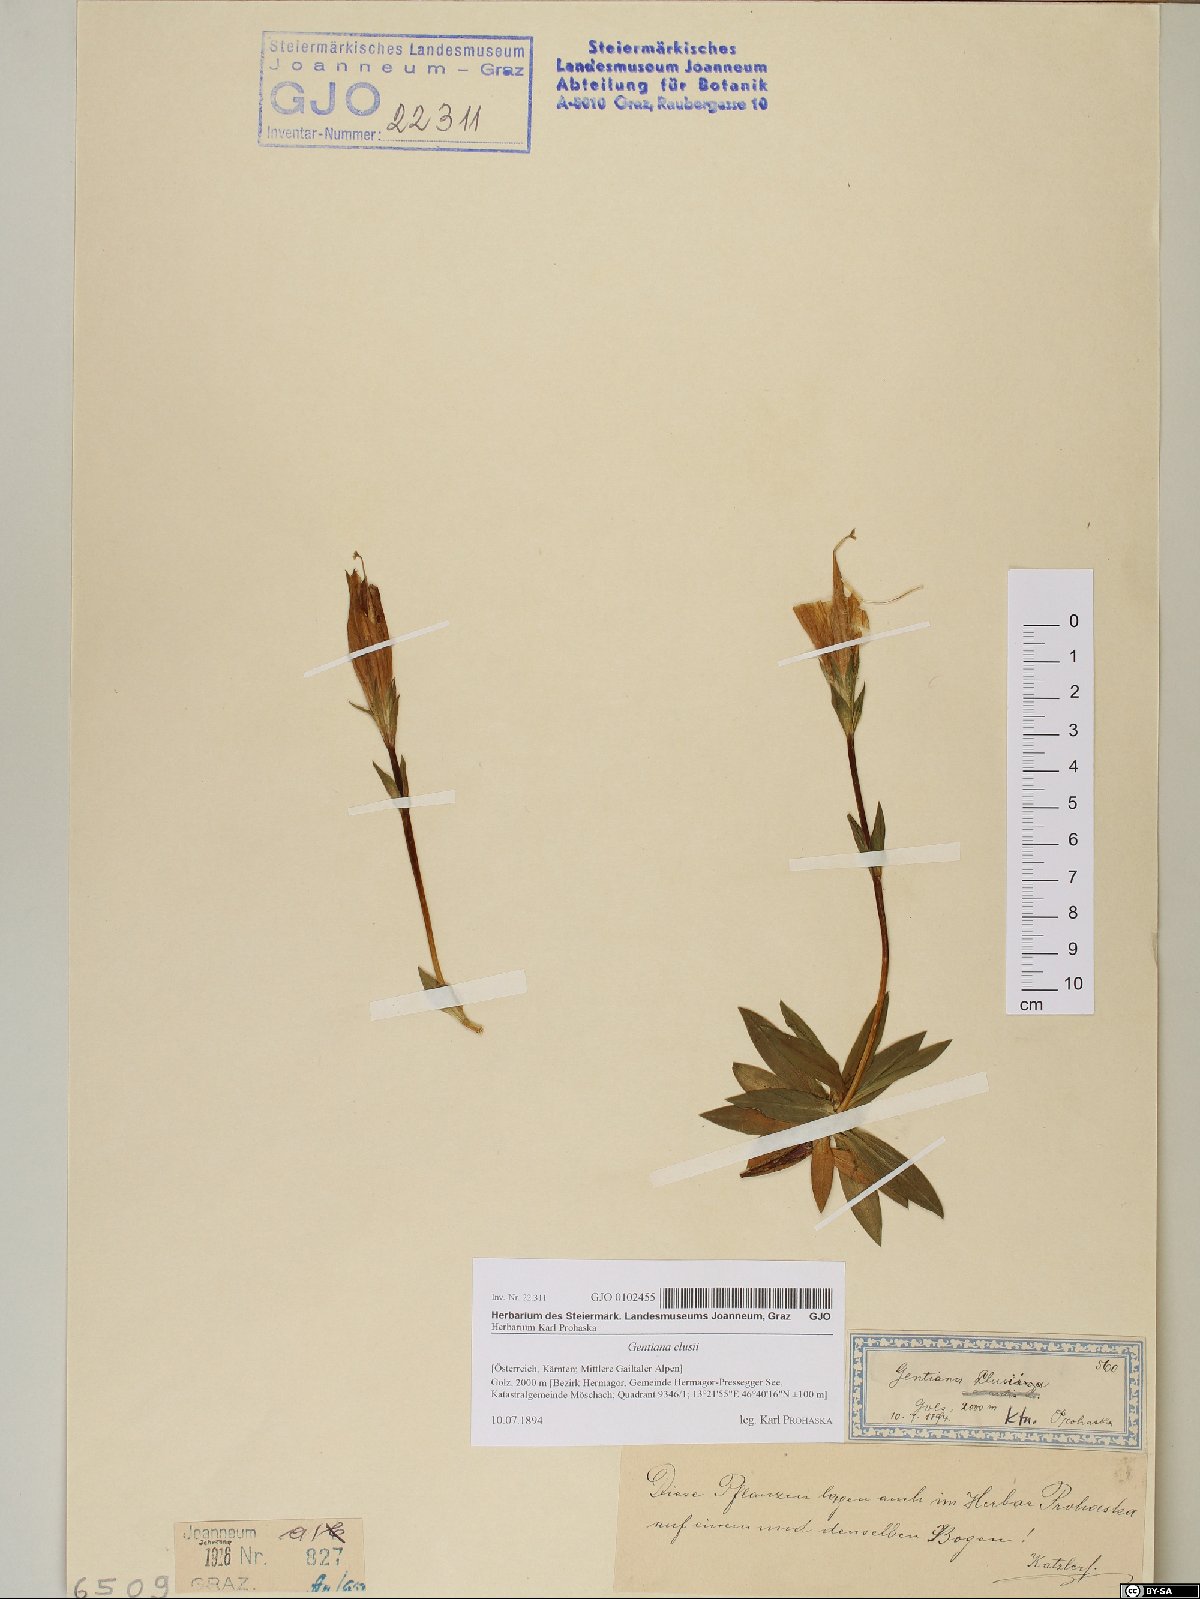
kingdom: Plantae
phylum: Tracheophyta
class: Magnoliopsida
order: Gentianales
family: Gentianaceae
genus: Gentiana
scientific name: Gentiana clusii
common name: Trumpet gentian
